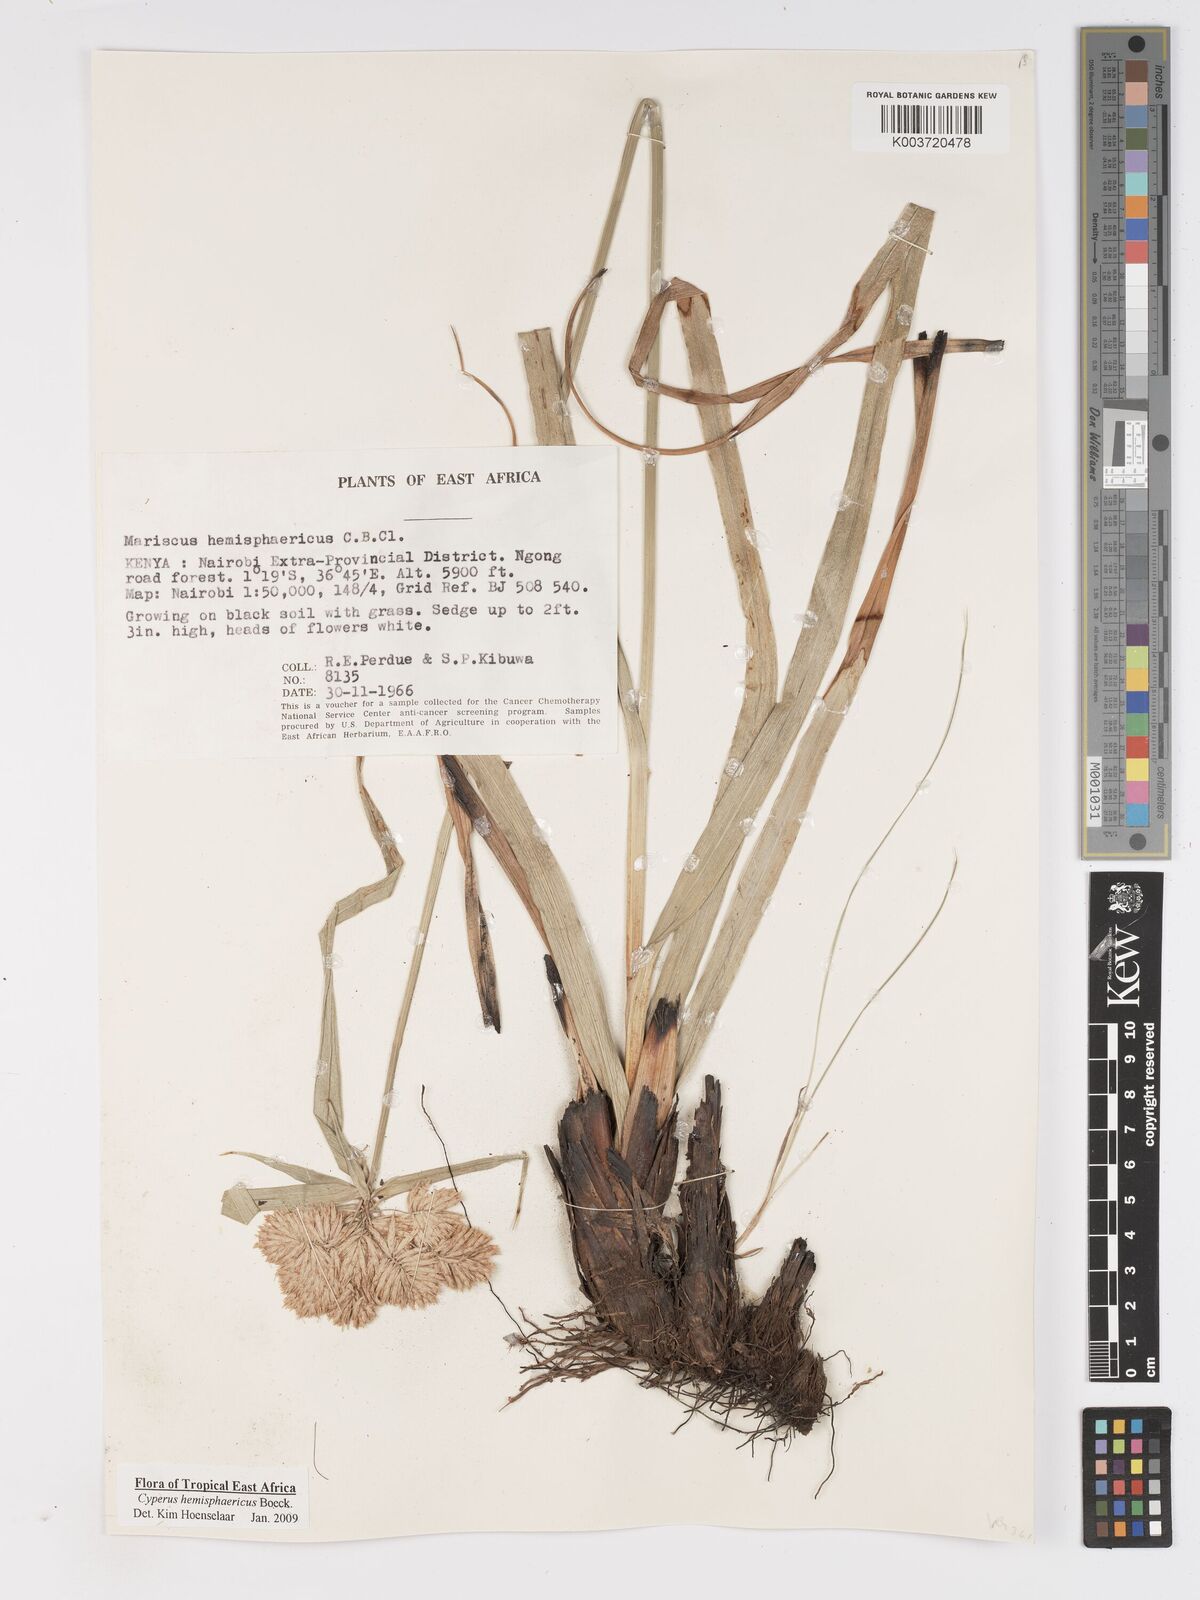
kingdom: Plantae
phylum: Tracheophyta
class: Liliopsida
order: Poales
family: Cyperaceae
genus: Cyperus
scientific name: Cyperus hemisphaericus
